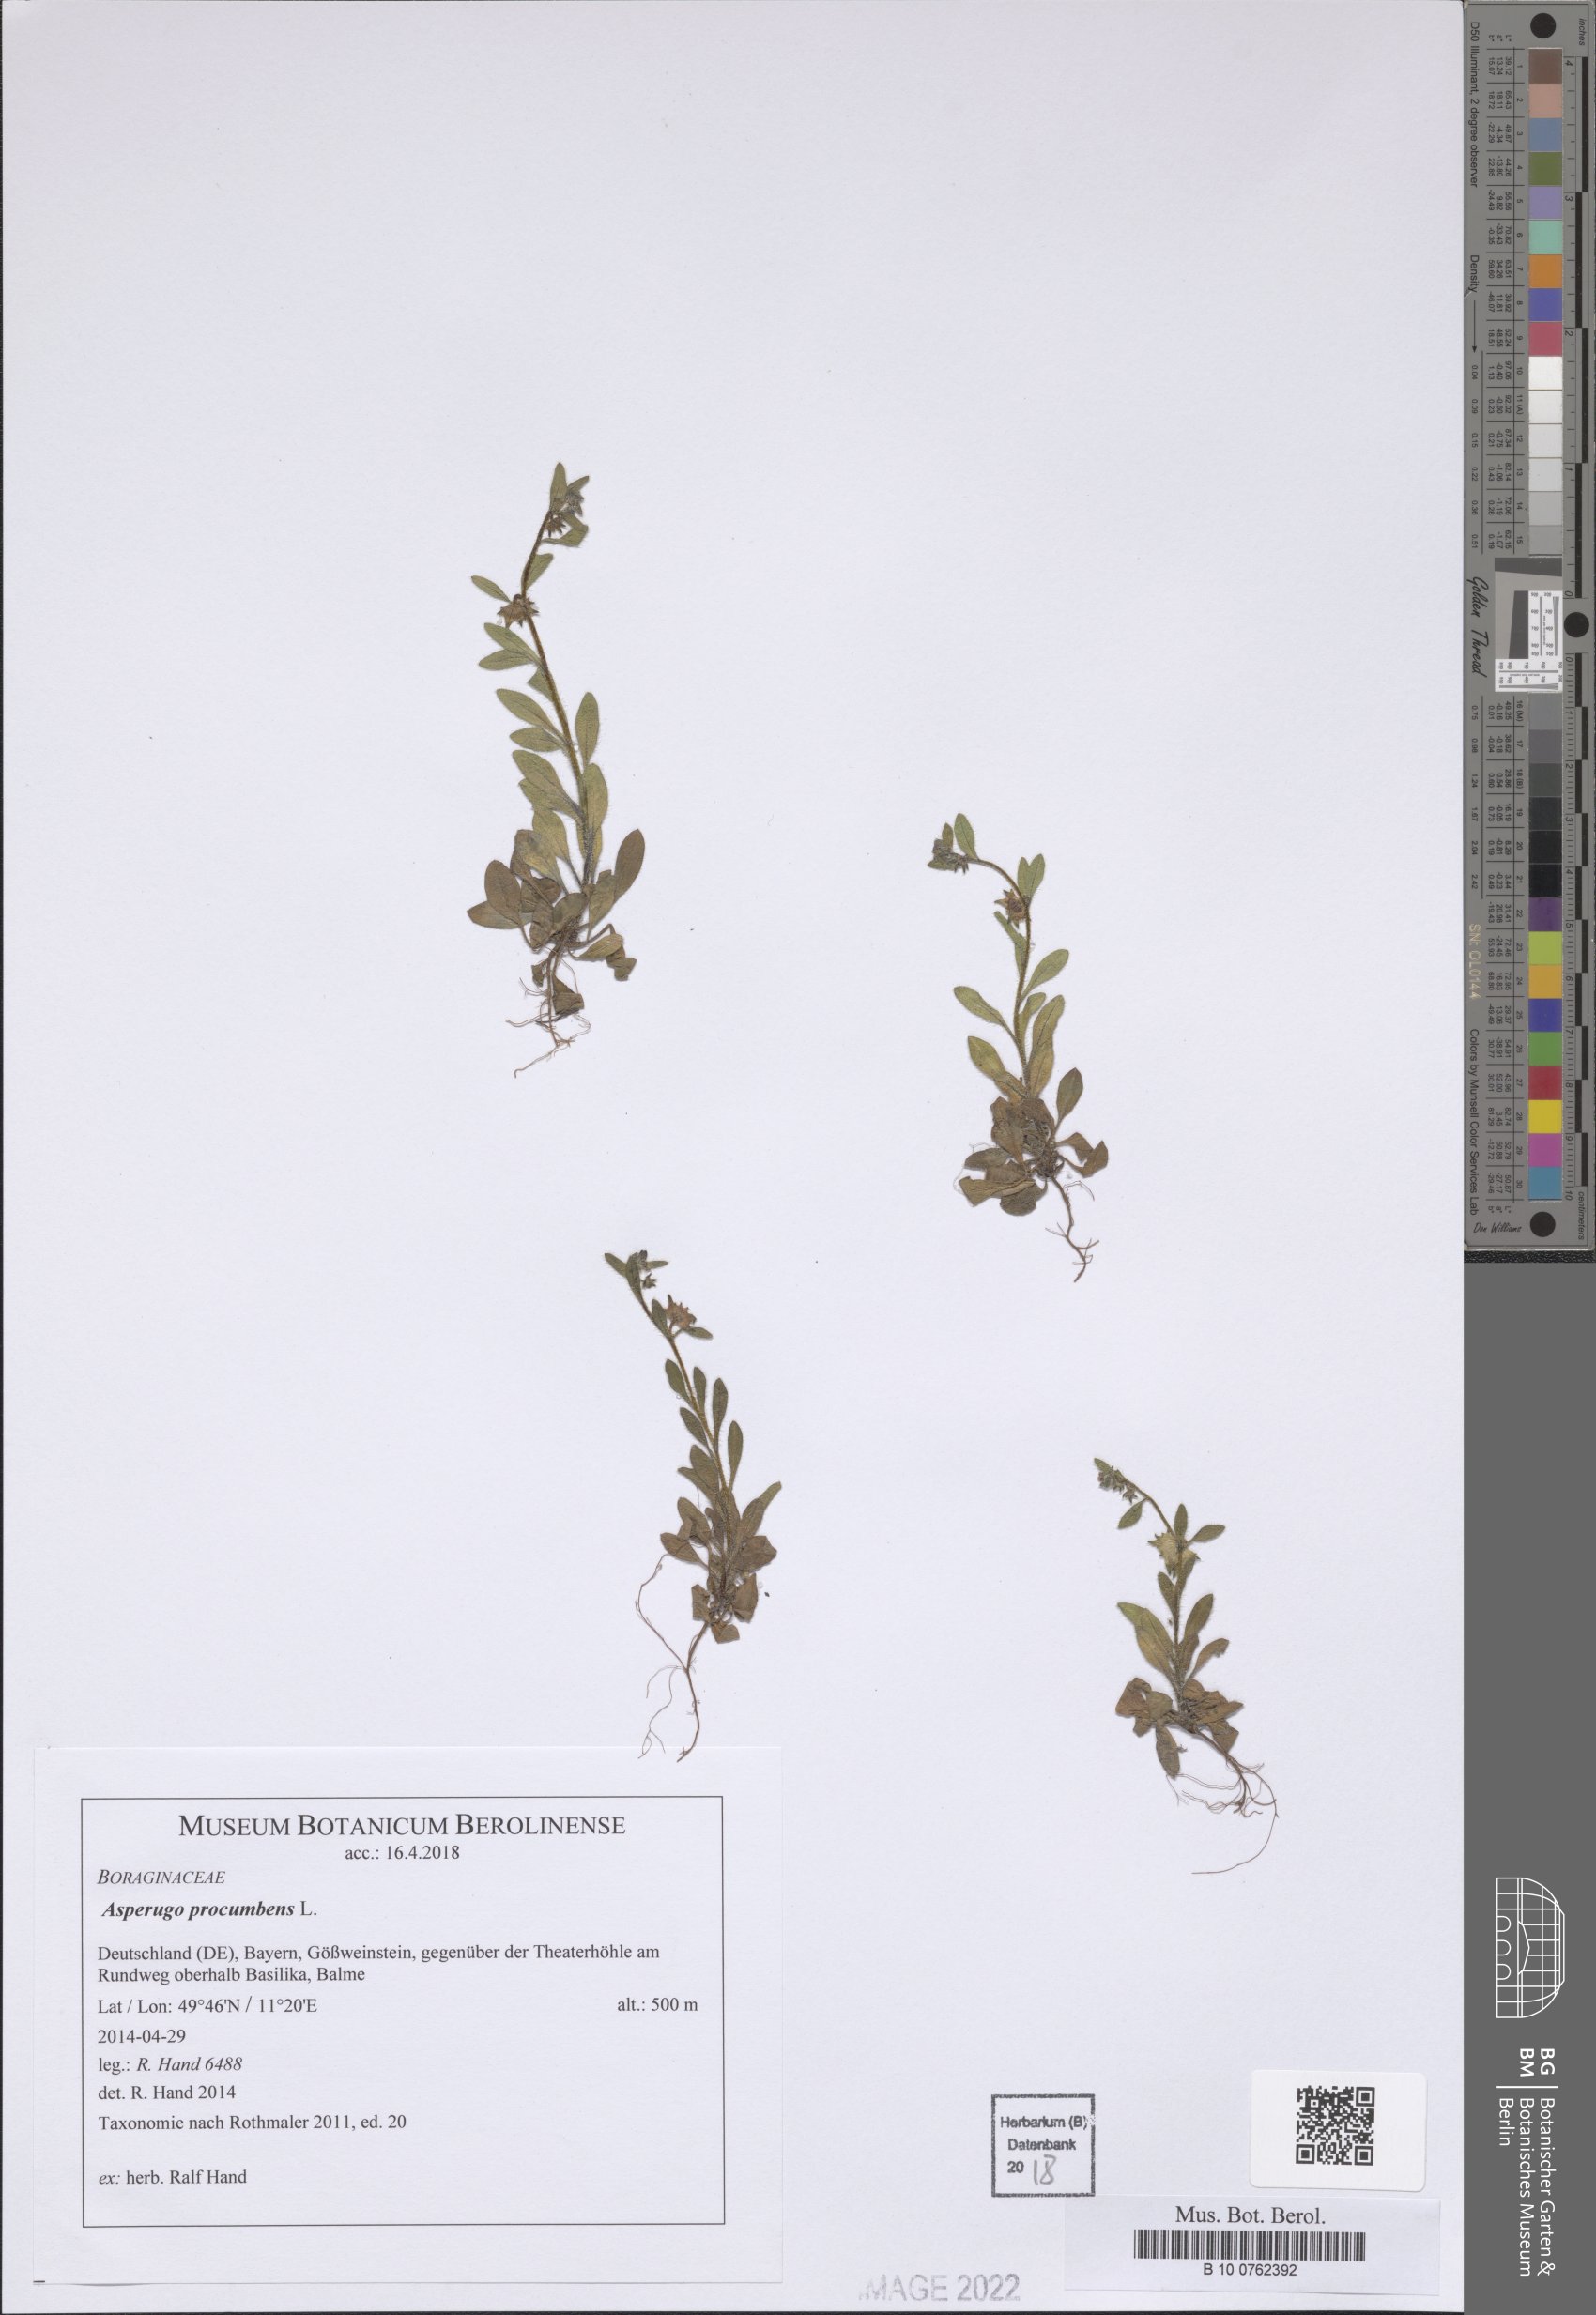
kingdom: Plantae
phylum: Tracheophyta
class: Magnoliopsida
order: Boraginales
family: Boraginaceae
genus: Asperugo
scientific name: Asperugo procumbens
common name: Madwort
